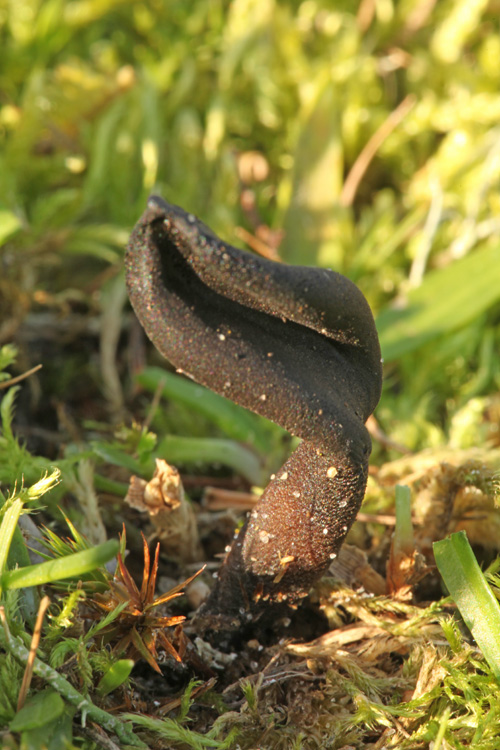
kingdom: Fungi
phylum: Ascomycota
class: Geoglossomycetes
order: Geoglossales
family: Geoglossaceae
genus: Hemileucoglossum
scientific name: Hemileucoglossum elongatum
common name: småsporet jordtunge
